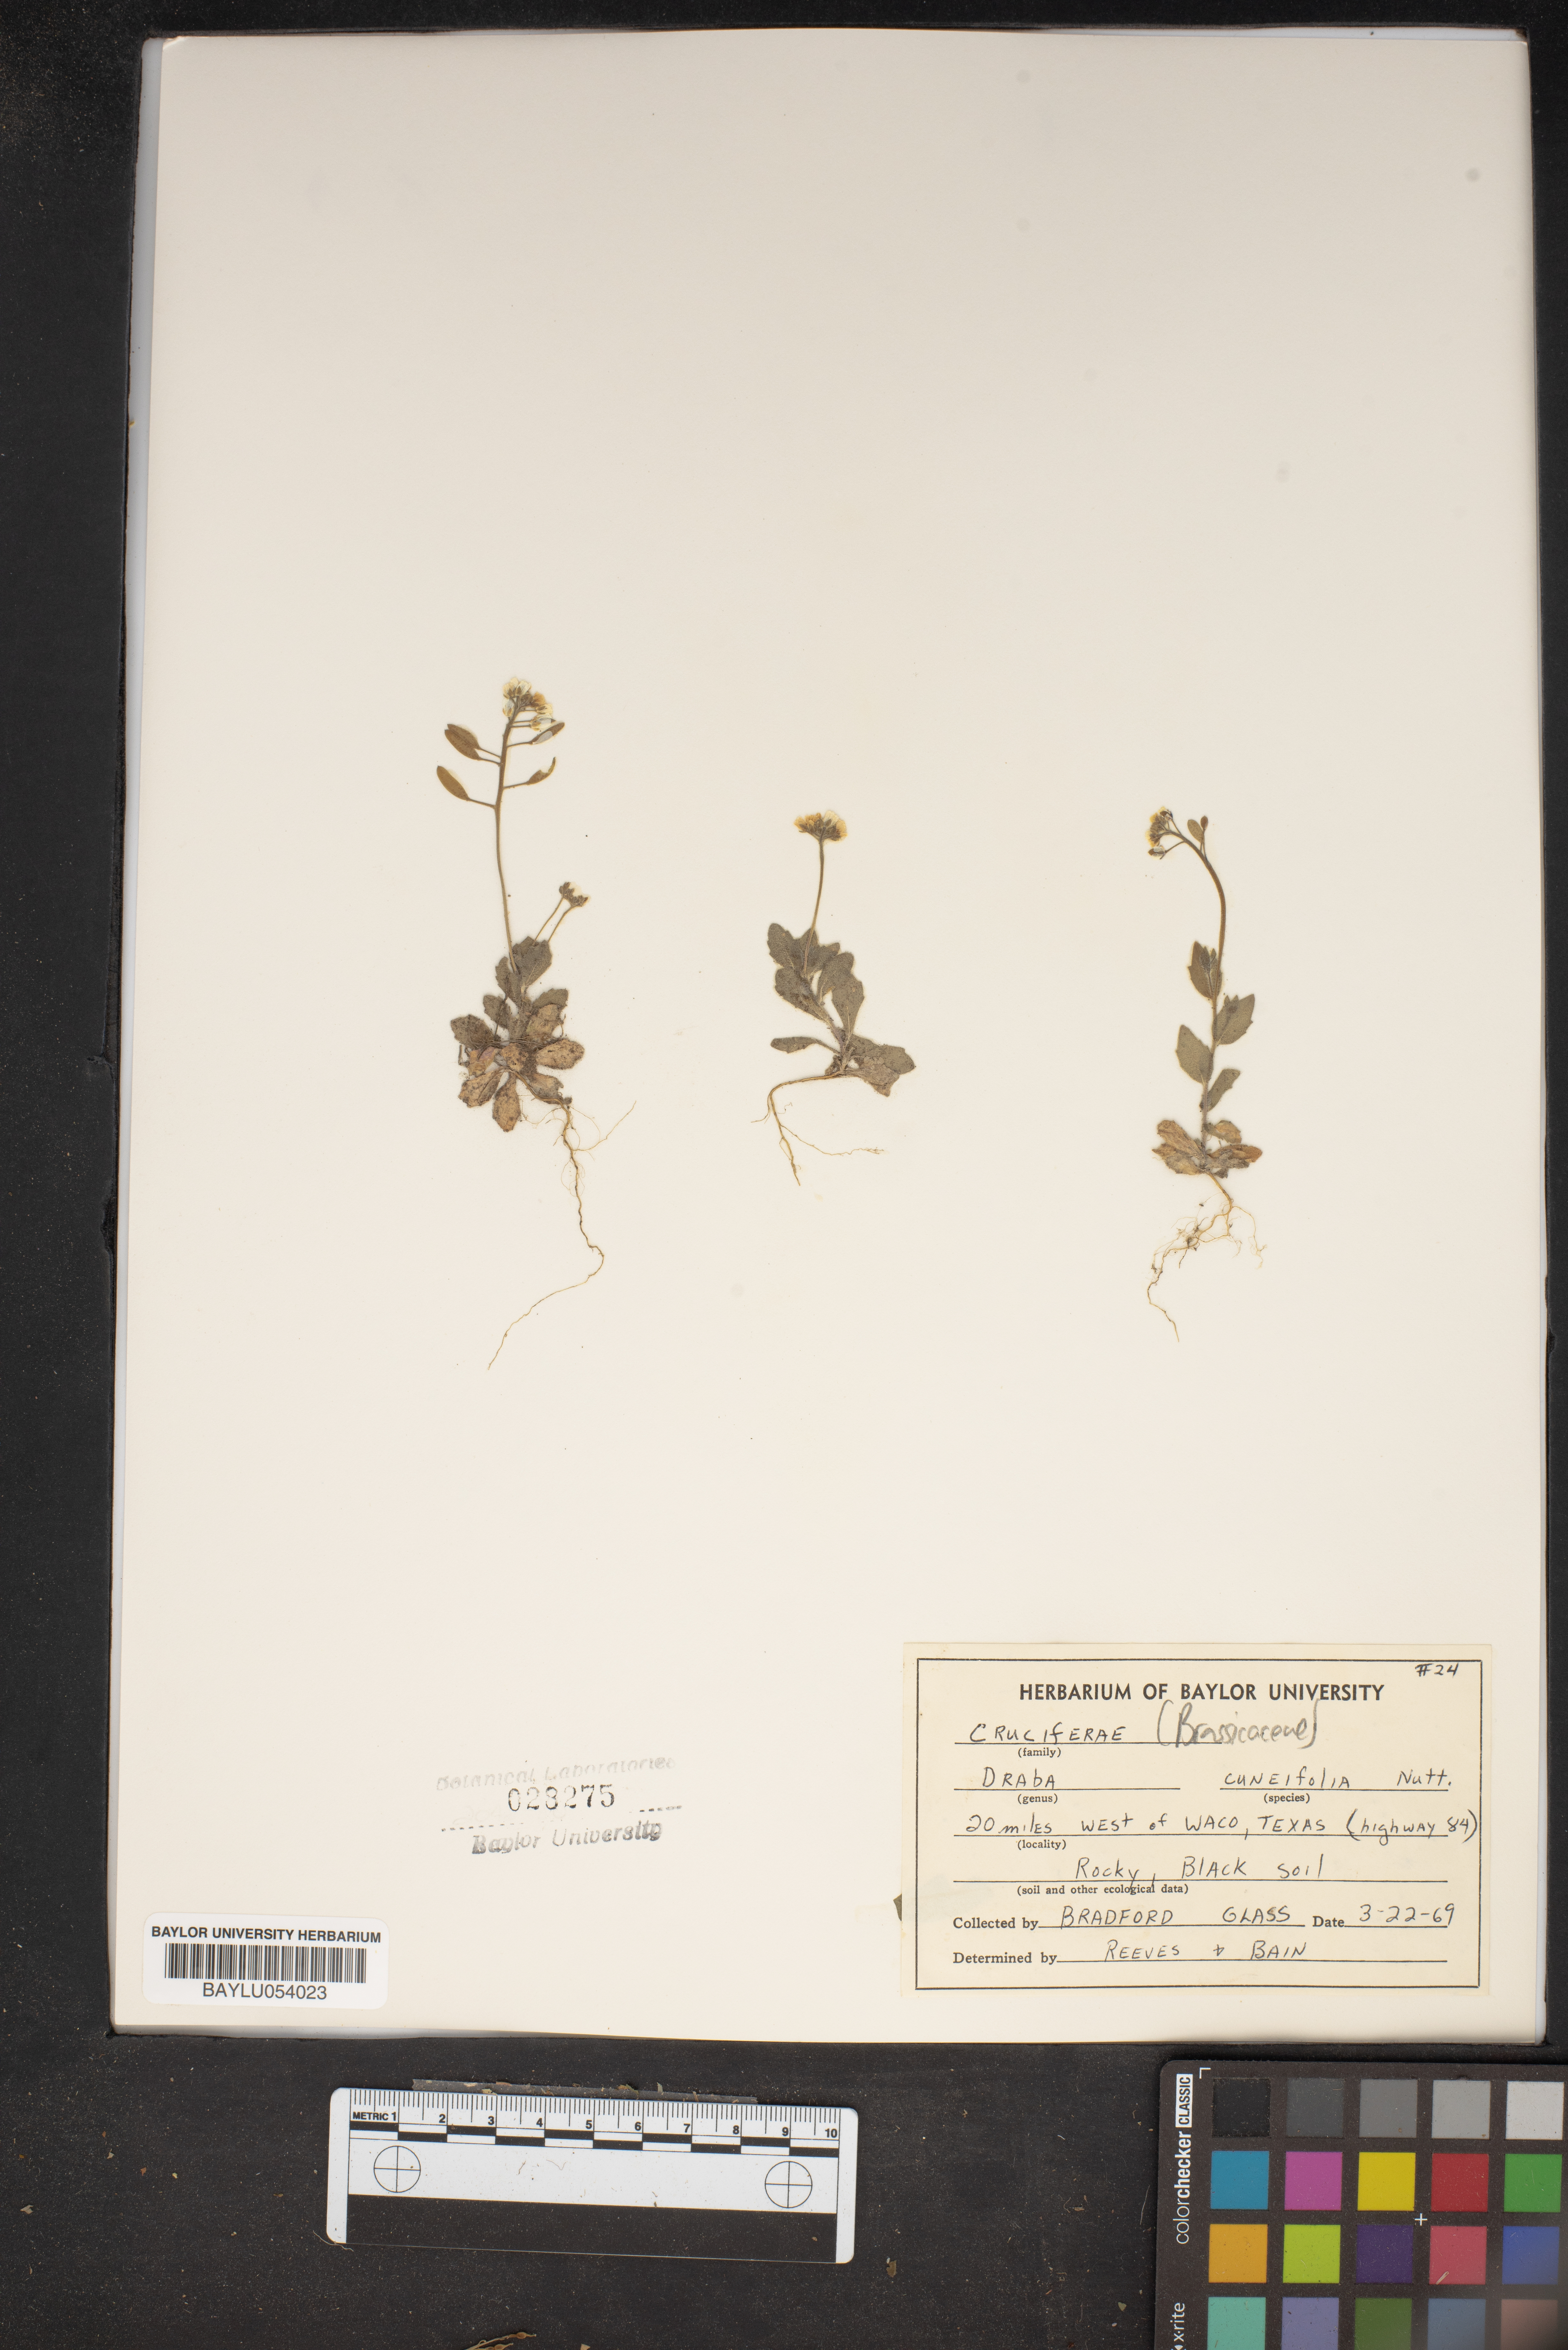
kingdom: Plantae
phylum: Tracheophyta
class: Magnoliopsida
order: Brassicales
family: Brassicaceae
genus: Tomostima
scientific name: Tomostima cuneifolia
